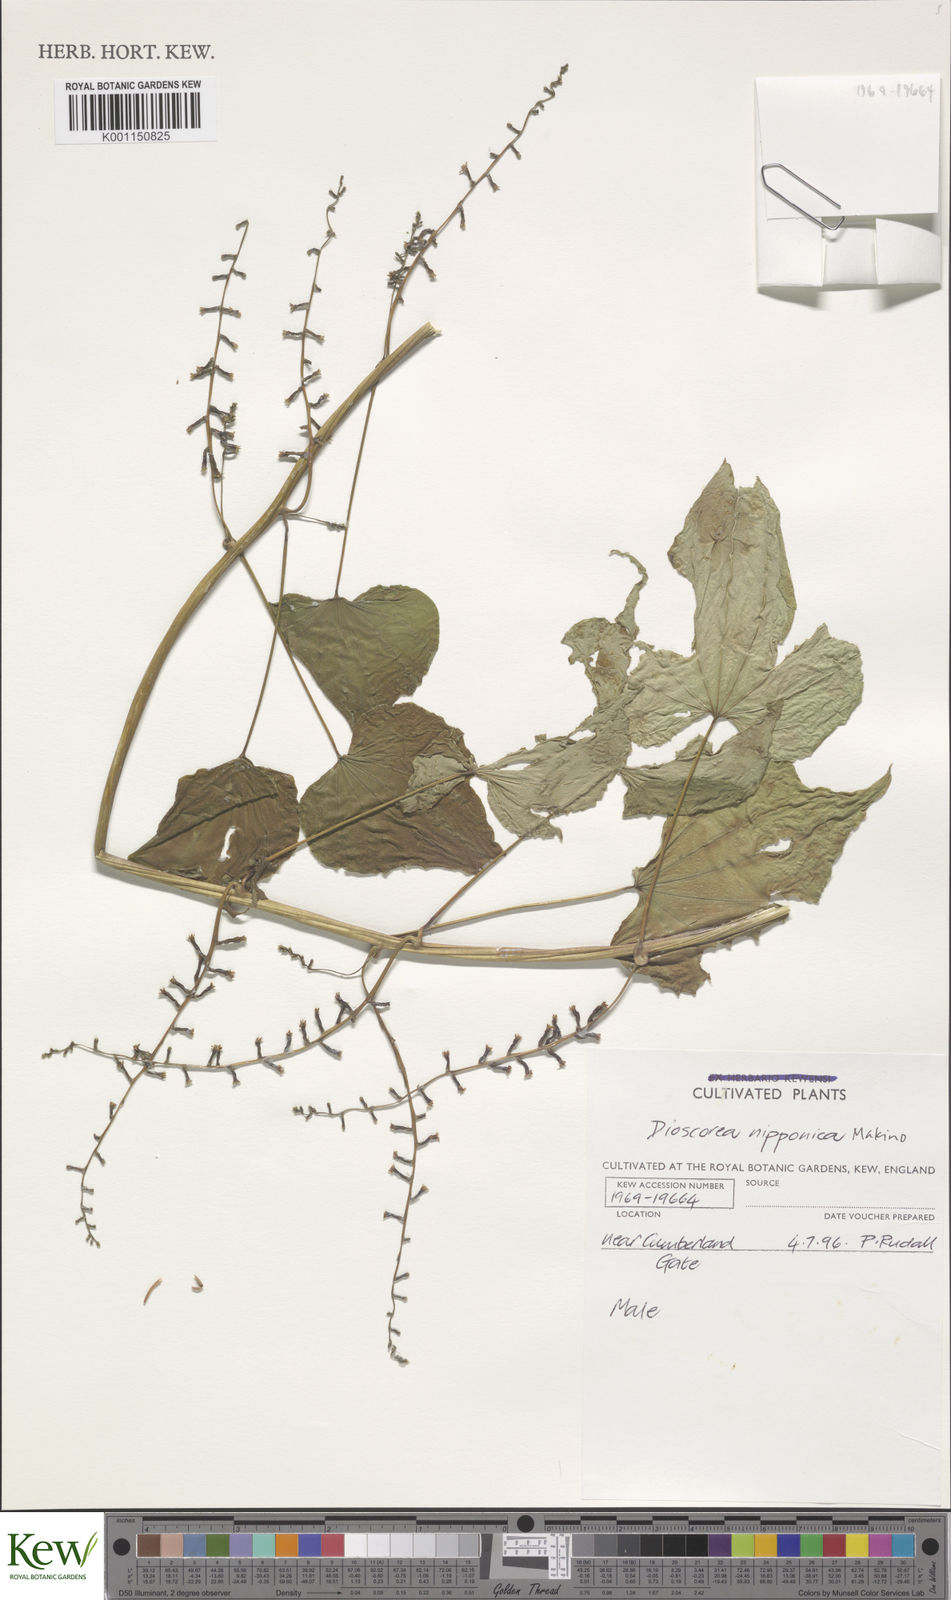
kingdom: Plantae
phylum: Tracheophyta
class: Liliopsida
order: Dioscoreales
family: Dioscoreaceae
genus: Dioscorea
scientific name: Dioscorea nipponica
